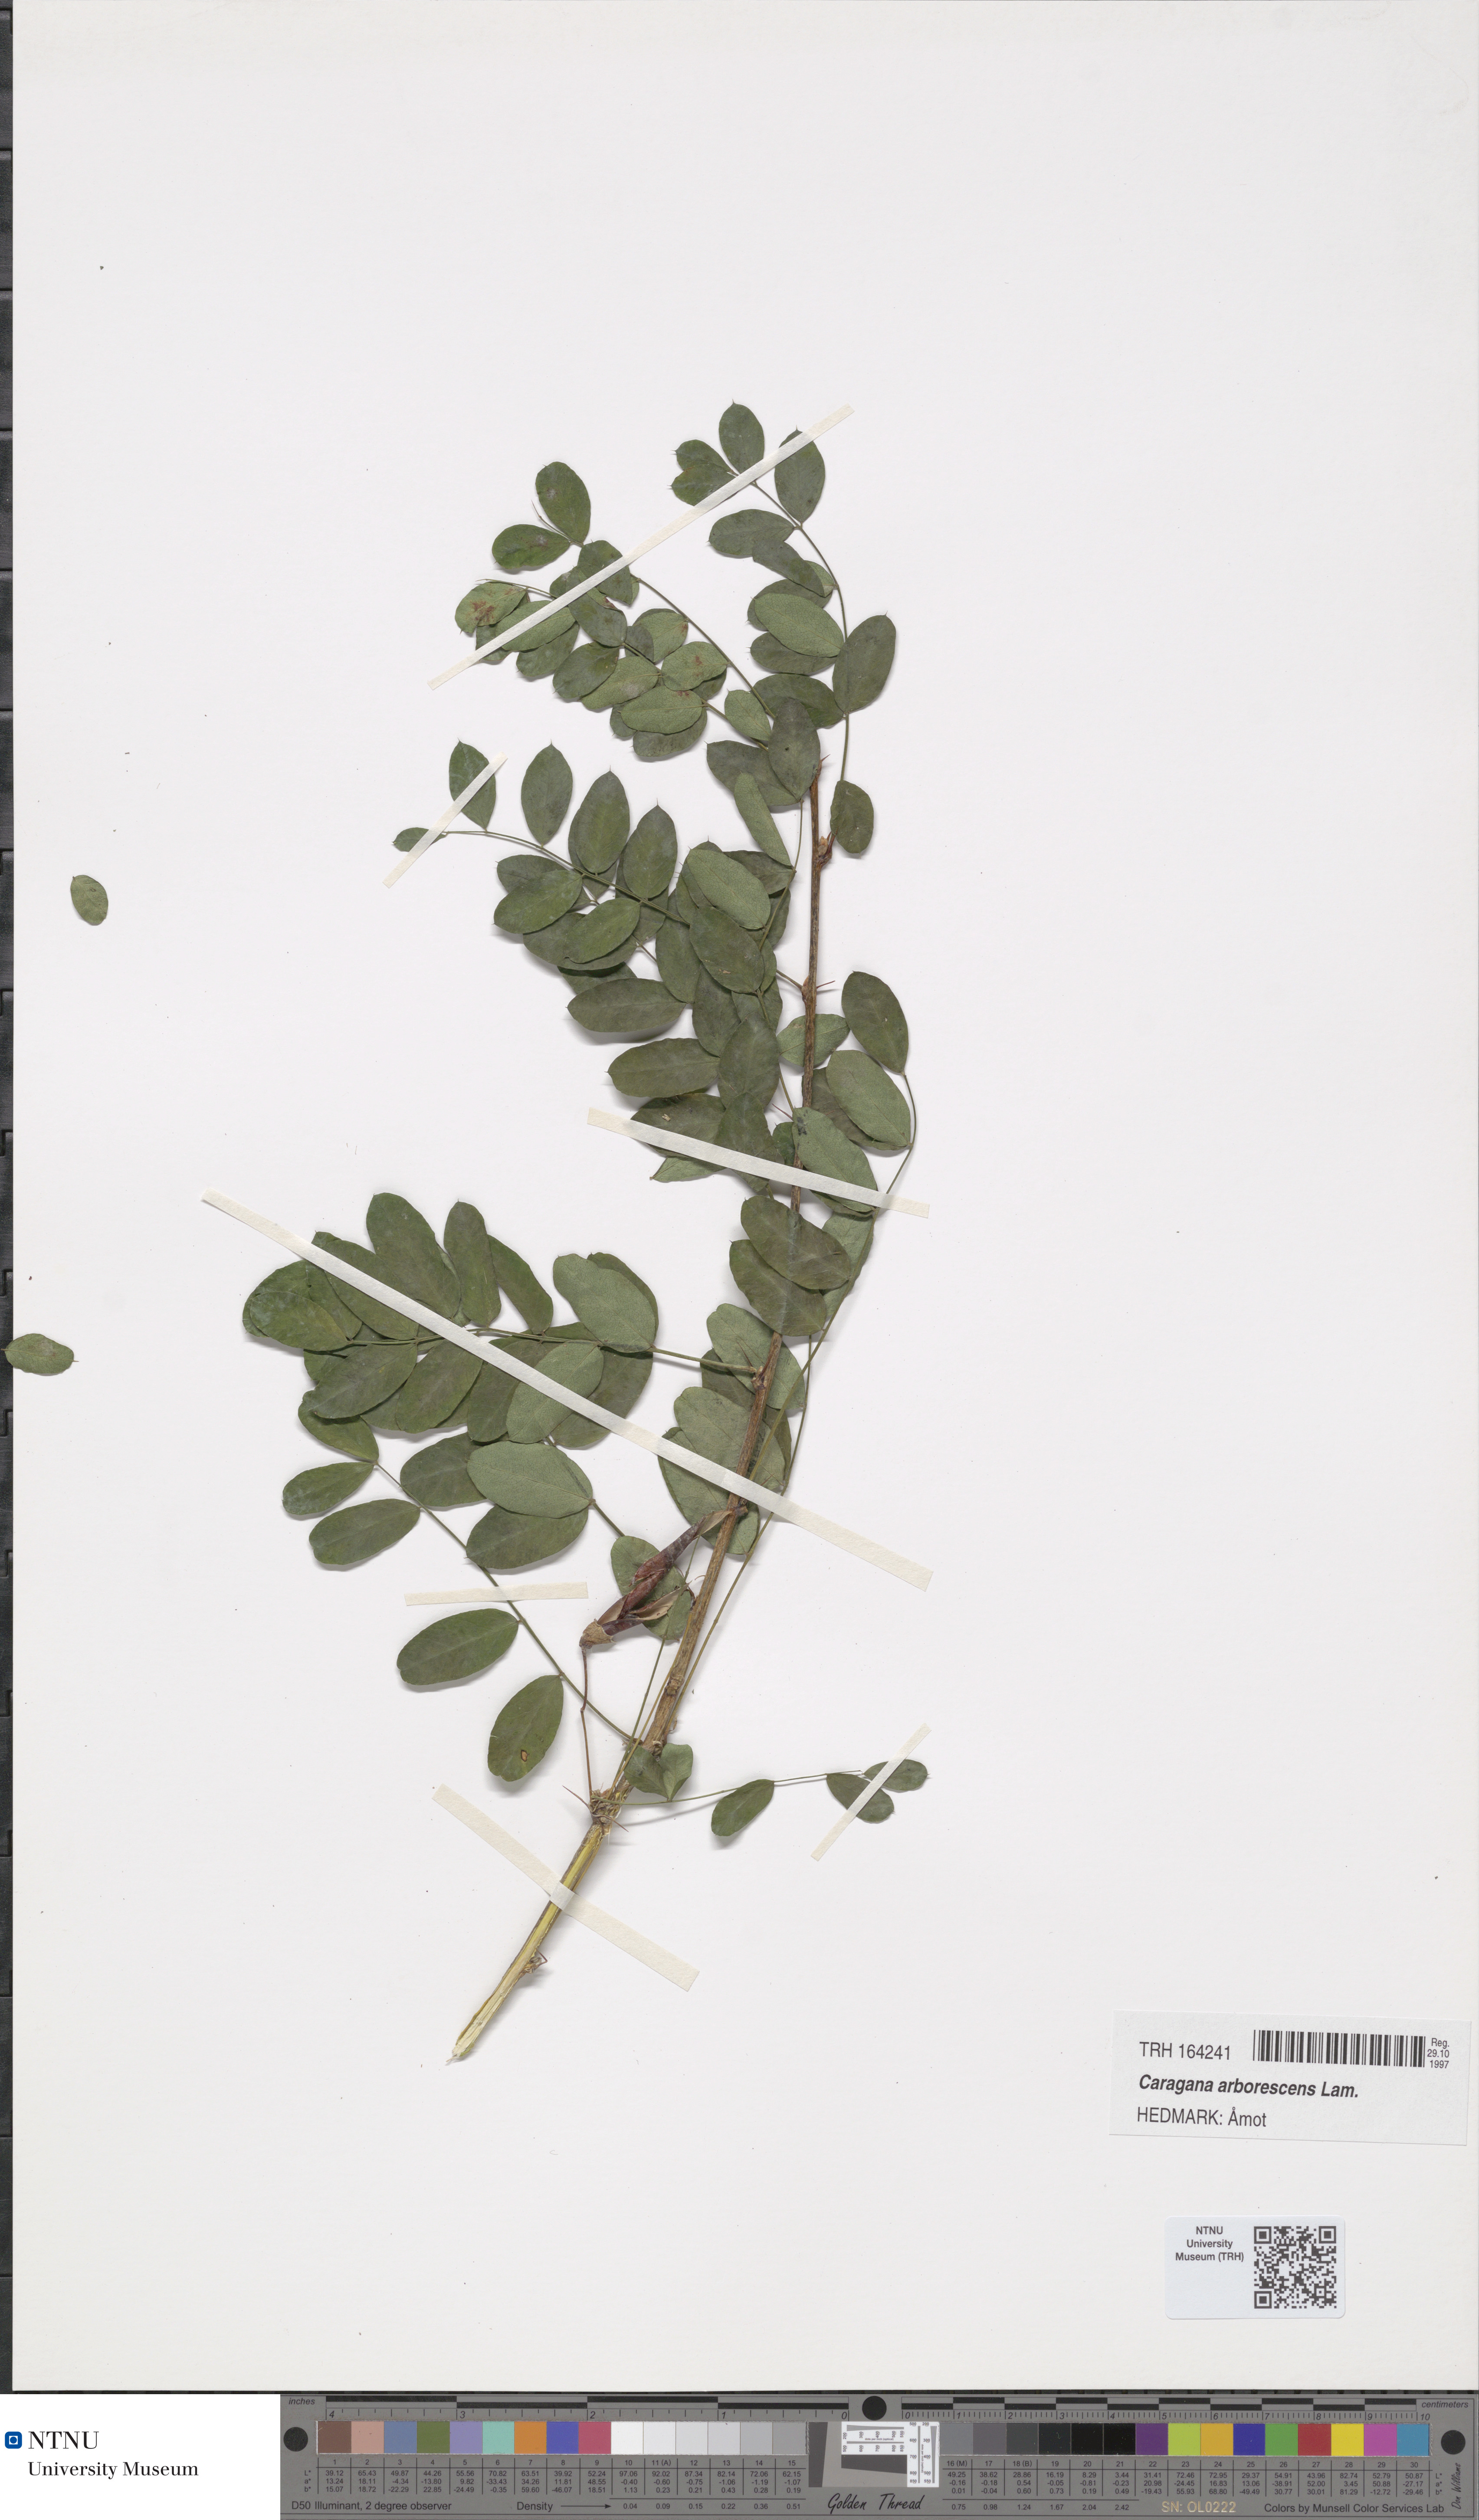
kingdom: Plantae
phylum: Tracheophyta
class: Magnoliopsida
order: Fabales
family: Fabaceae
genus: Caragana
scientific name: Caragana arborescens
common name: Siberian peashrub
